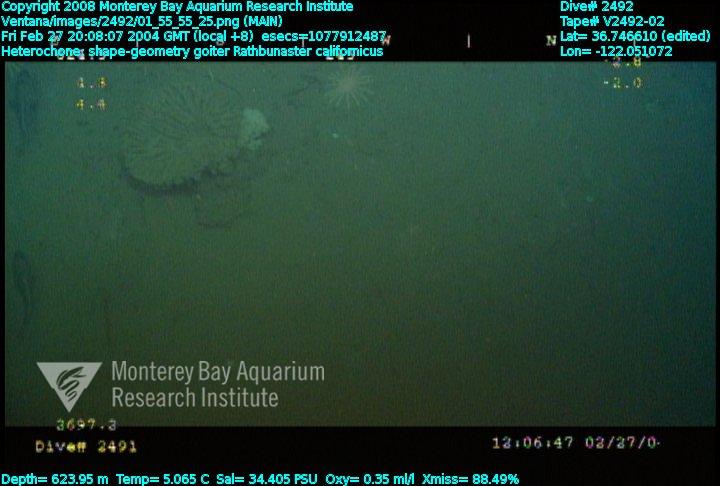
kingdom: Animalia
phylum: Porifera
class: Hexactinellida
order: Sceptrulophora
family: Aphrocallistidae
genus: Heterochone
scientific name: Heterochone
